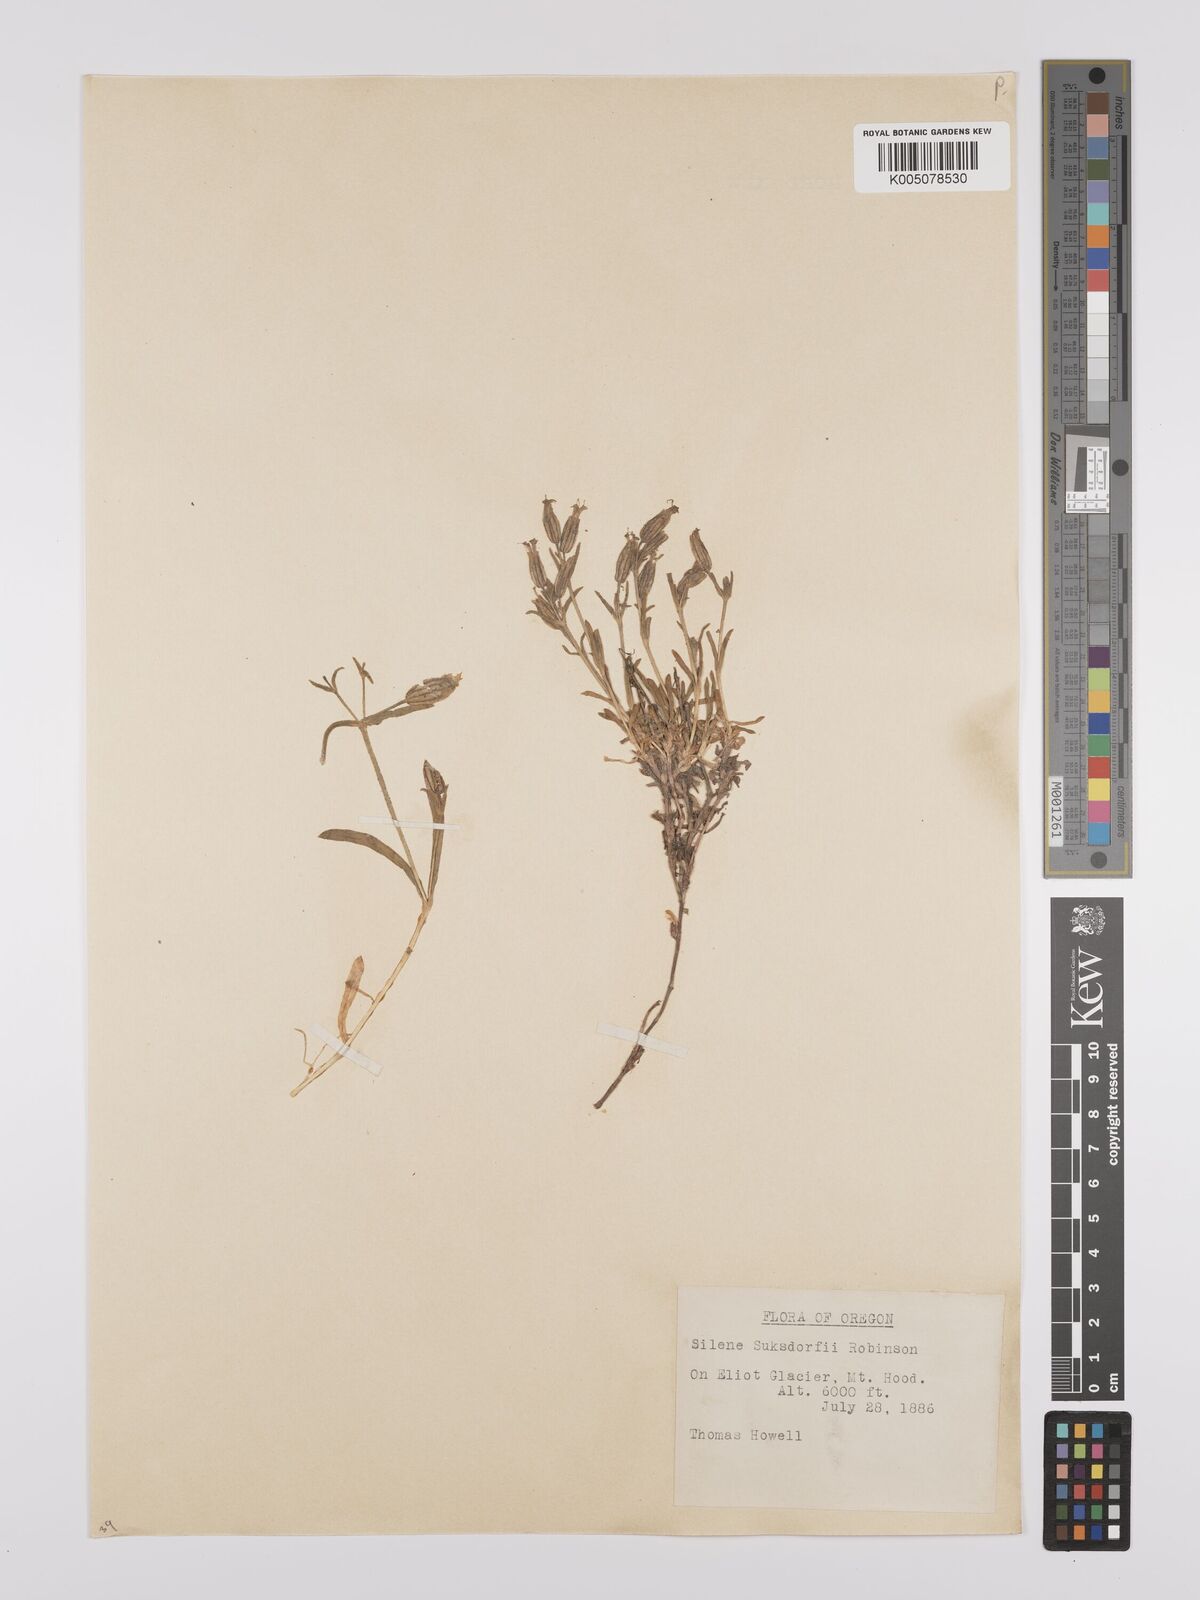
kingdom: Plantae
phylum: Tracheophyta
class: Magnoliopsida
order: Caryophyllales
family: Caryophyllaceae
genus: Silene
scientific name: Silene suksdorfii
